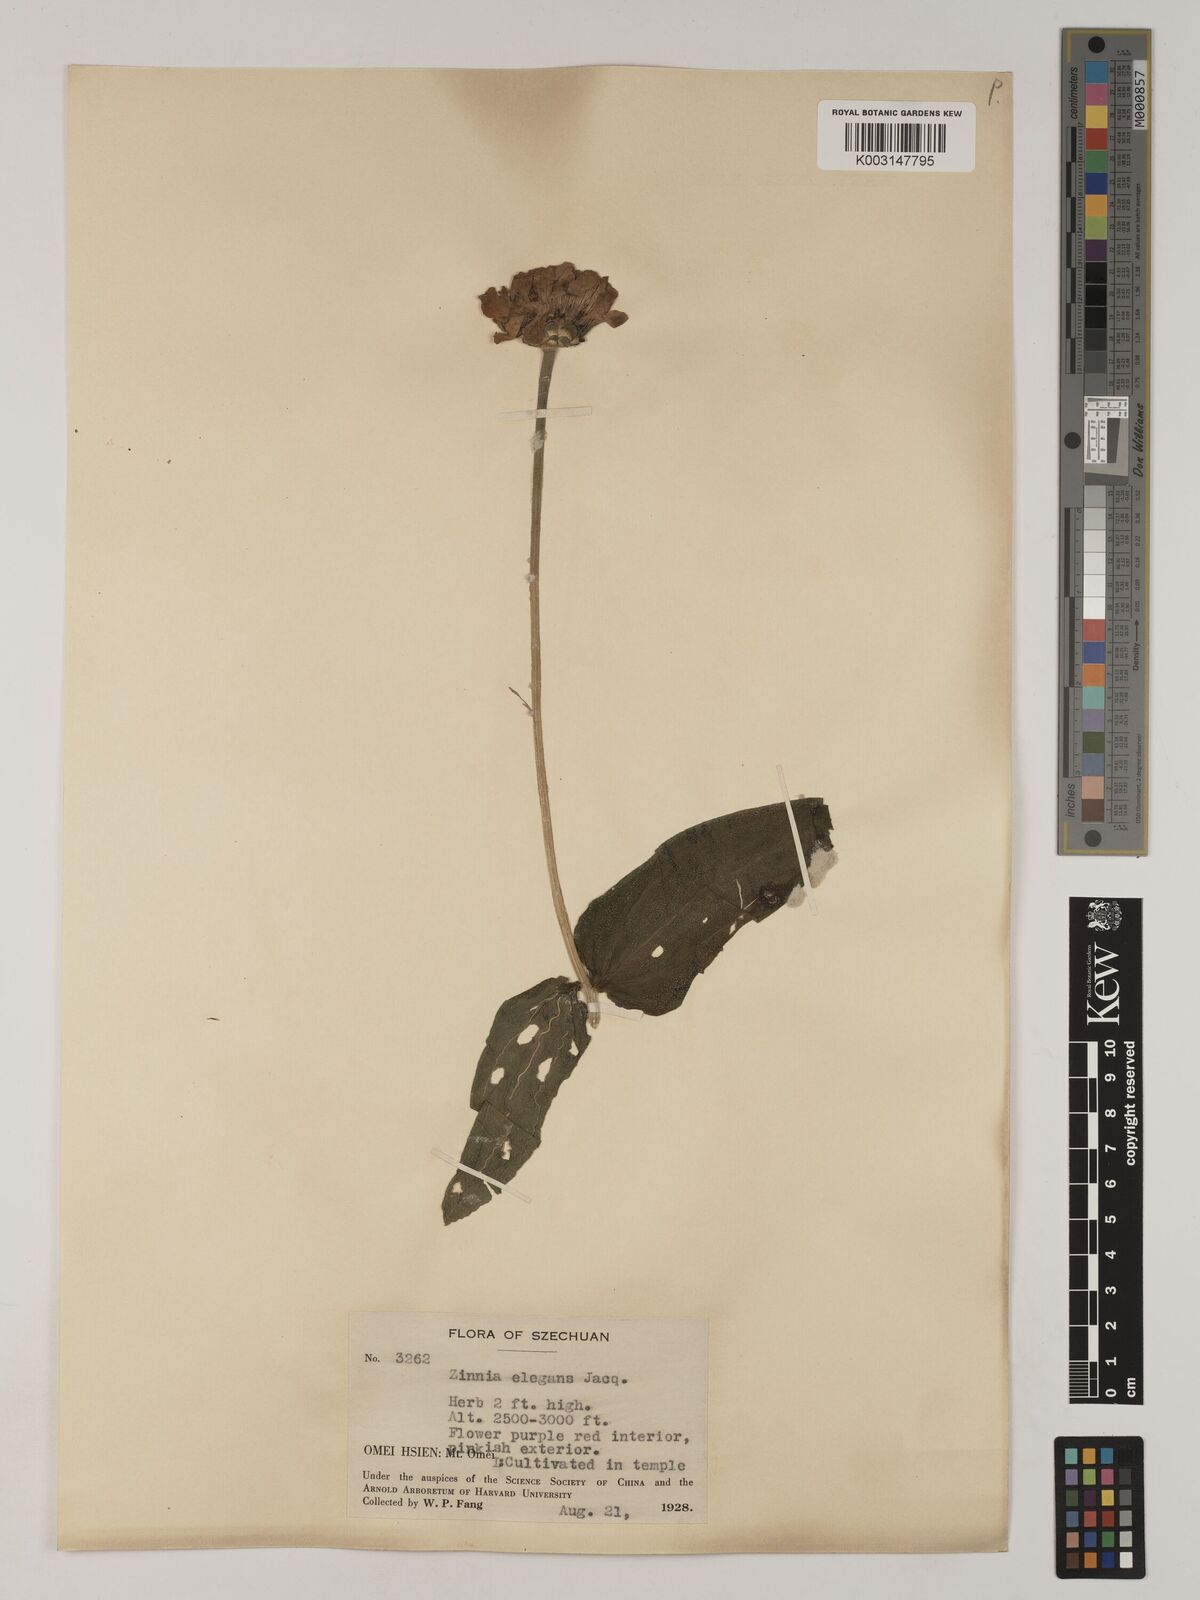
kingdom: Plantae
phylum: Tracheophyta
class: Magnoliopsida
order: Asterales
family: Asteraceae
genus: Zinnia
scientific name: Zinnia elegans
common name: Youth-and-age
